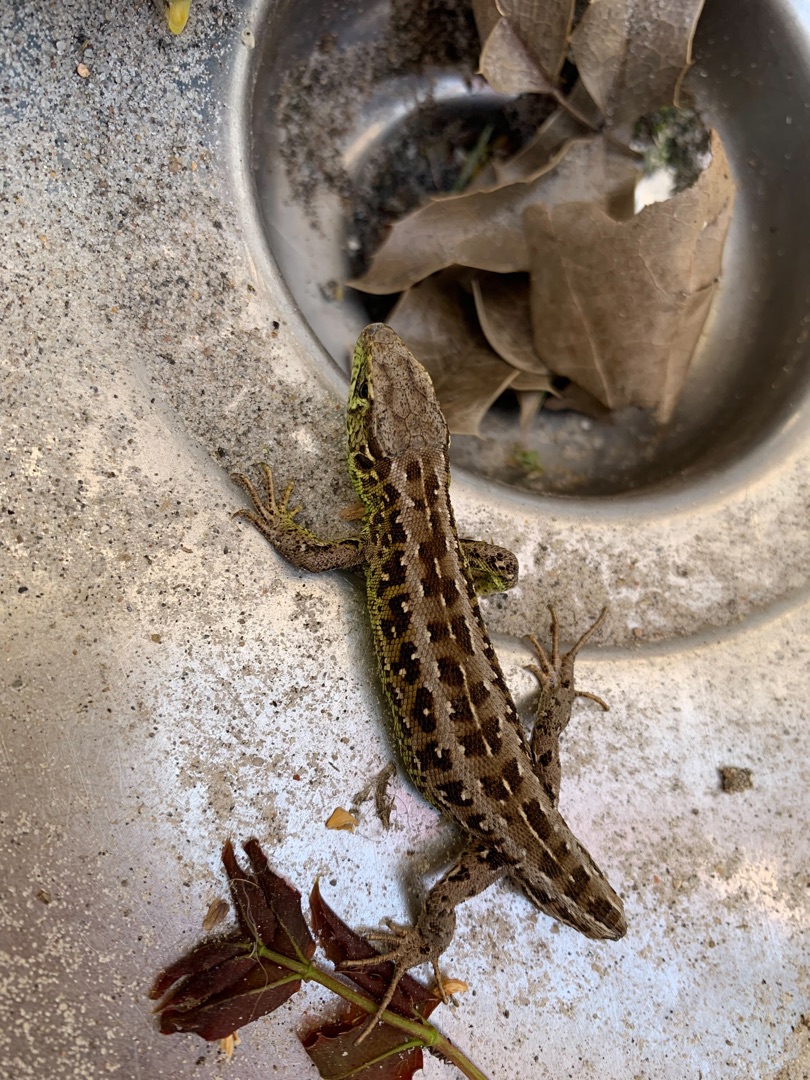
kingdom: Animalia
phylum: Chordata
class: Squamata
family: Lacertidae
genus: Lacerta
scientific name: Lacerta agilis
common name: Markfirben
